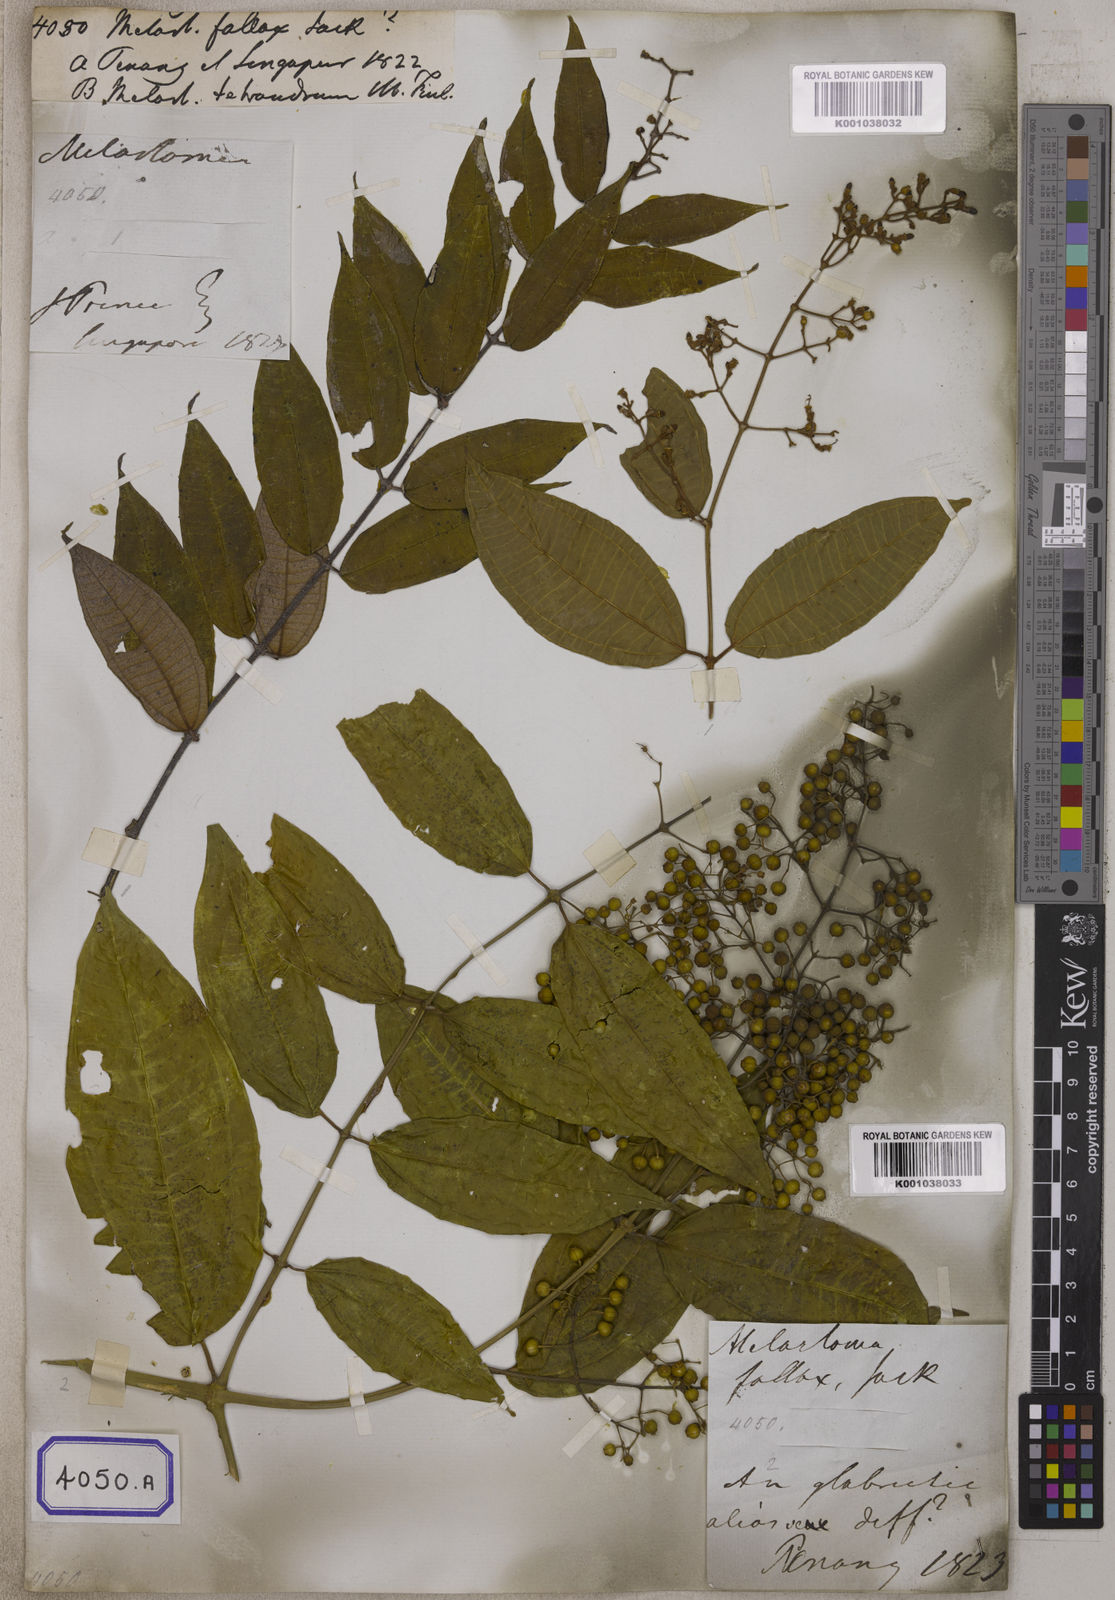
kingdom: Plantae
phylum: Tracheophyta
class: Magnoliopsida
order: Myrtales
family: Melastomataceae
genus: Melastoma
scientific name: Melastoma
